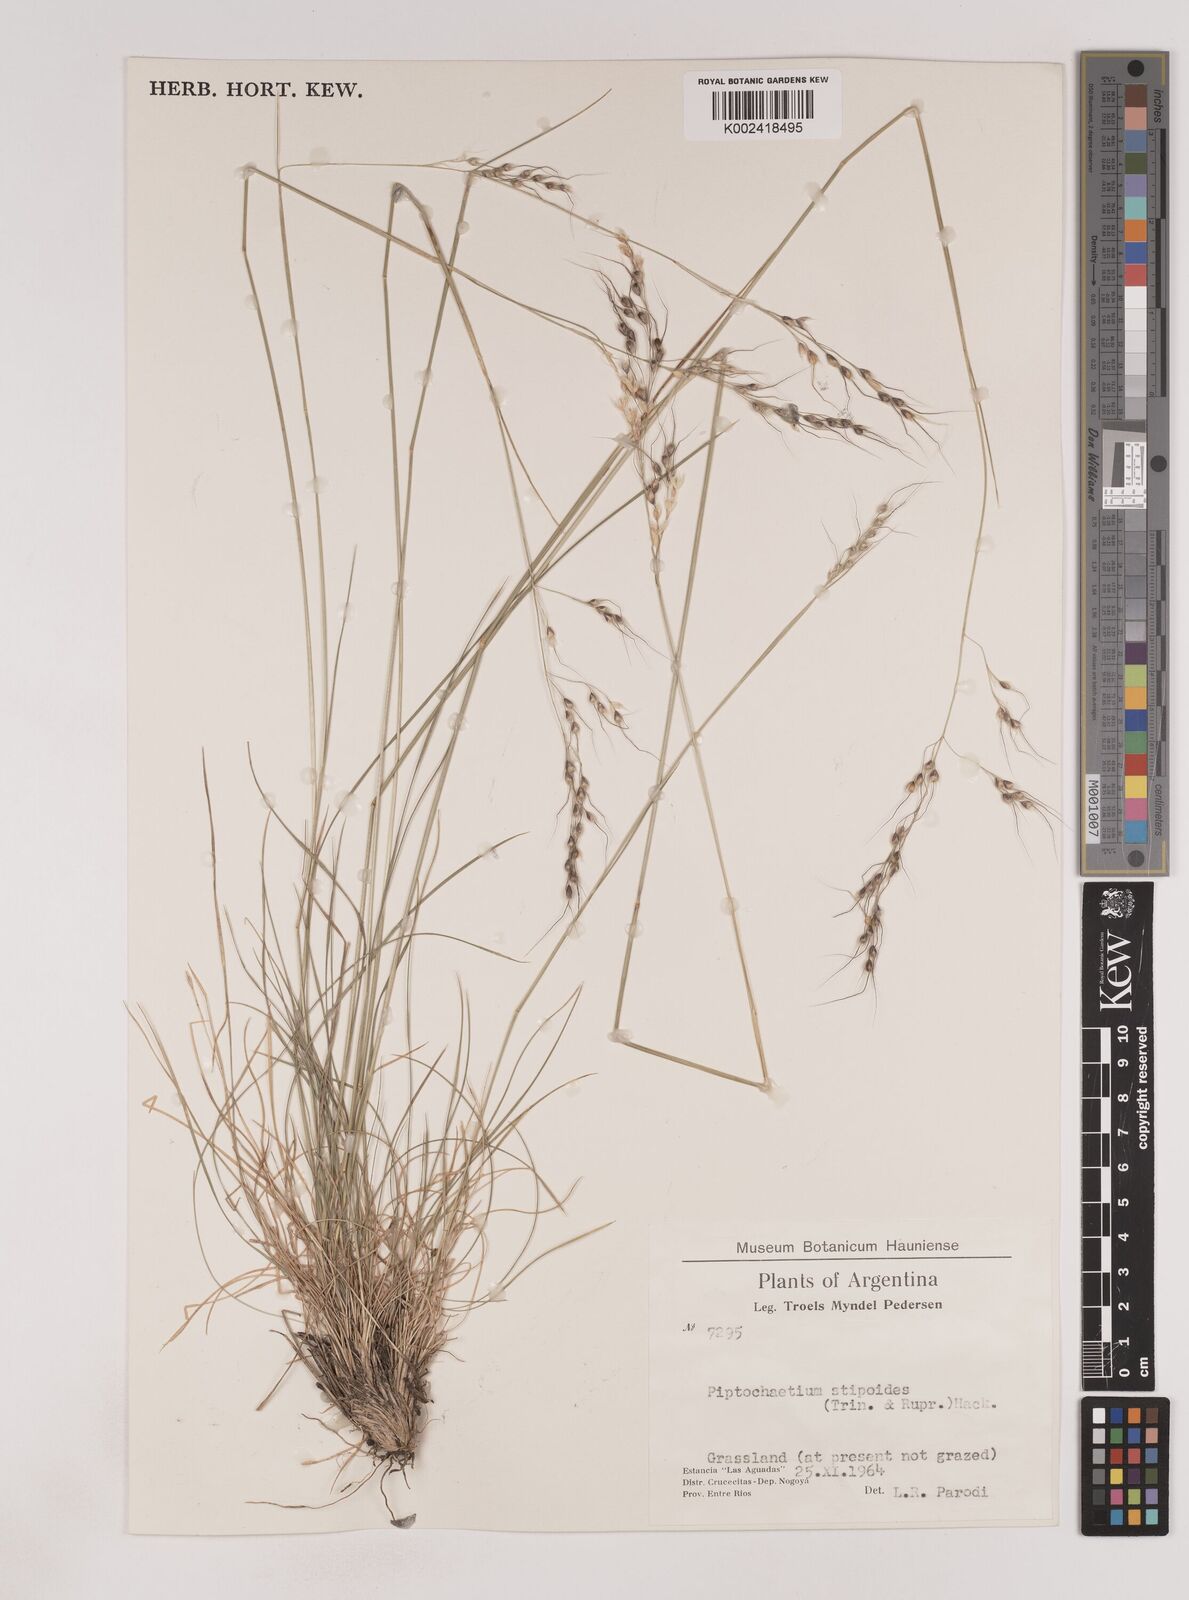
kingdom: Plantae
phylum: Tracheophyta
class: Liliopsida
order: Poales
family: Poaceae
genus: Piptochaetium
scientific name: Piptochaetium stipoides
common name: Purple speargrass
